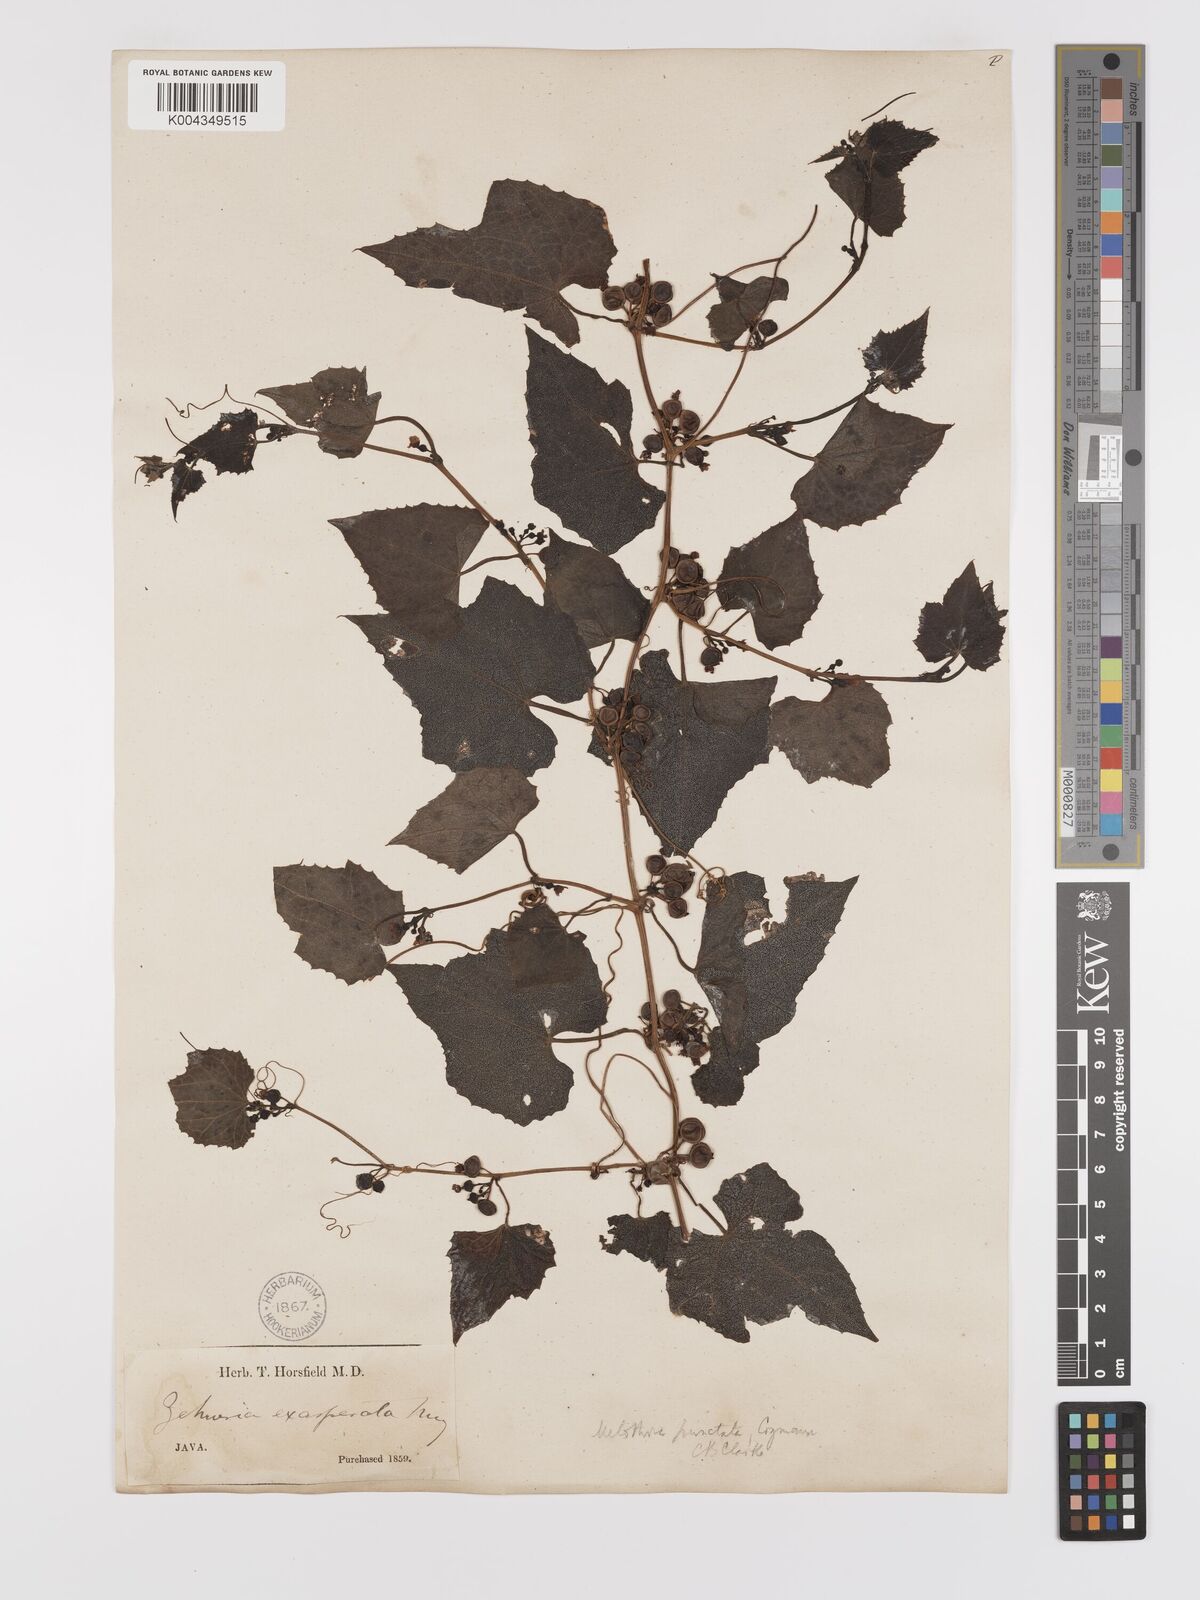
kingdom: Plantae
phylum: Tracheophyta
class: Magnoliopsida
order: Cucurbitales
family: Cucurbitaceae
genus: Zehneria
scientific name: Zehneria scabra
